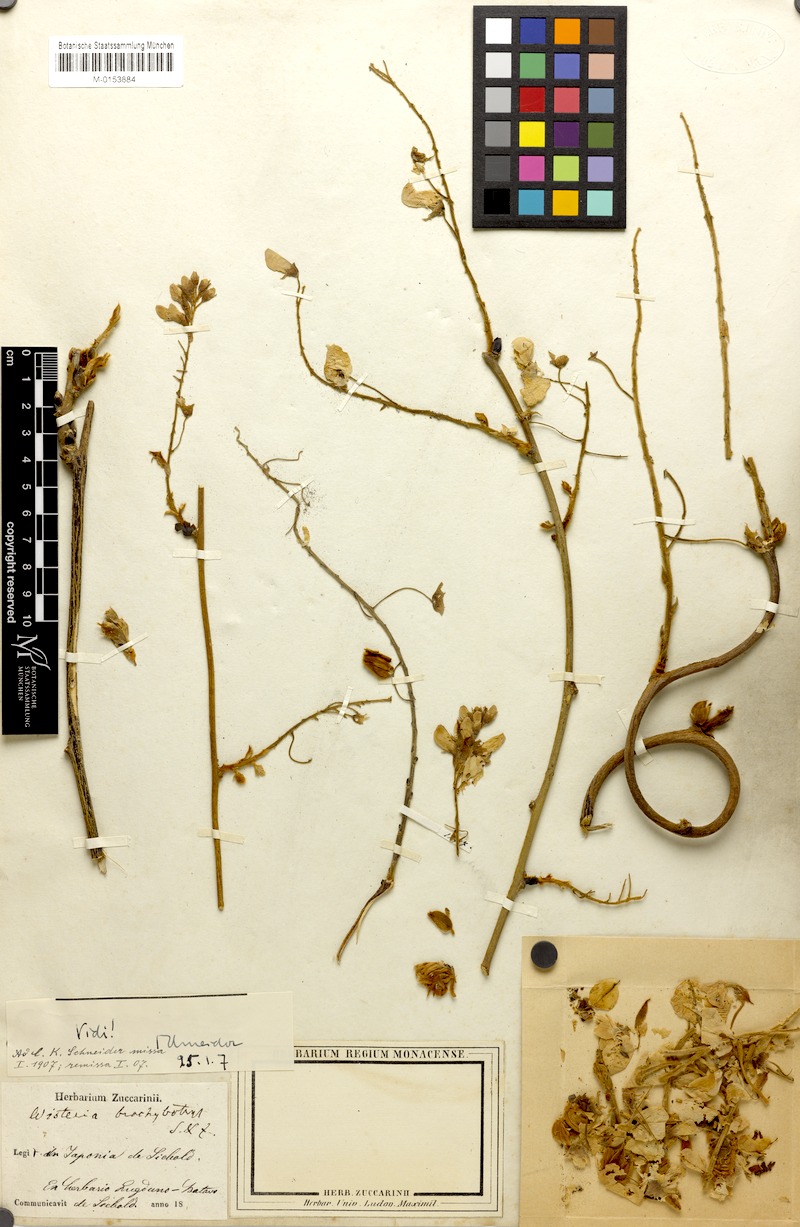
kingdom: Plantae
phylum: Tracheophyta
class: Magnoliopsida
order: Fabales
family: Fabaceae
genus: Wisteria
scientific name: Wisteria brachybotrys
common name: Silky wisteria
